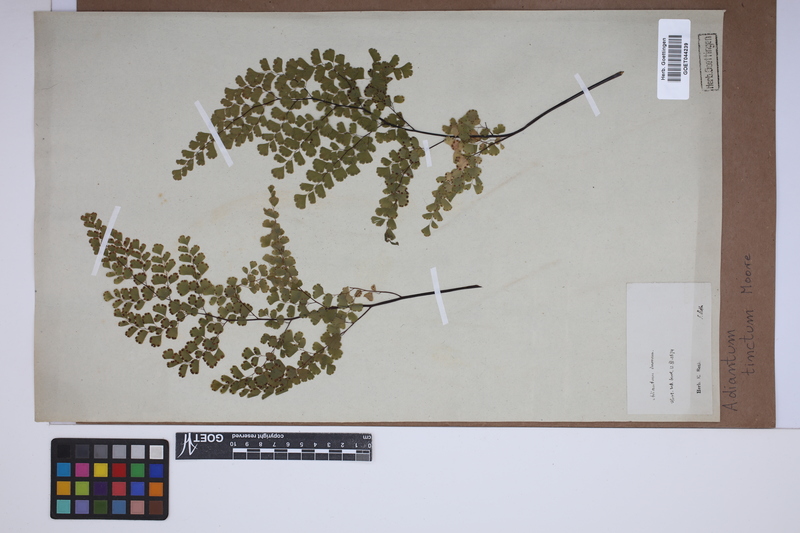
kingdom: Plantae
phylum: Tracheophyta
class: Polypodiopsida
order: Polypodiales
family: Pteridaceae
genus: Adiantum
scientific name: Adiantum tinctum
